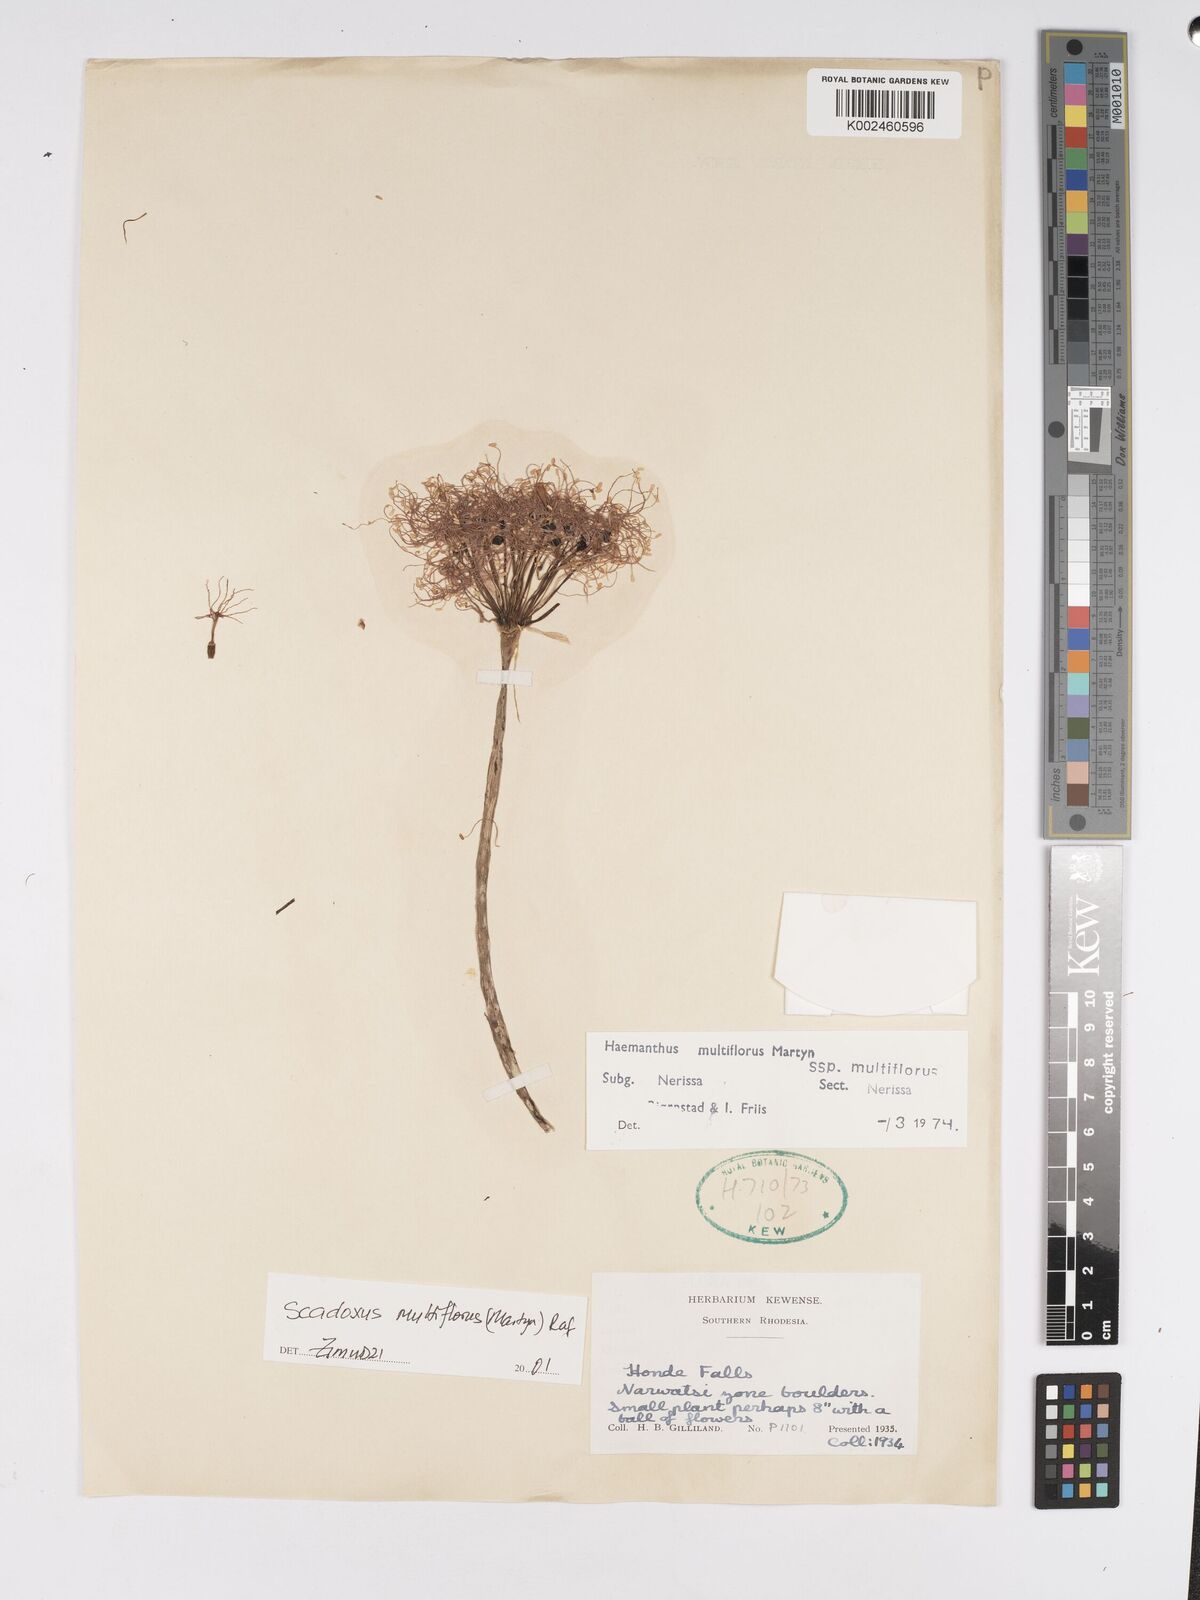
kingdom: Plantae
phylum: Tracheophyta
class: Liliopsida
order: Asparagales
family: Amaryllidaceae
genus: Scadoxus
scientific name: Scadoxus multiflorus
